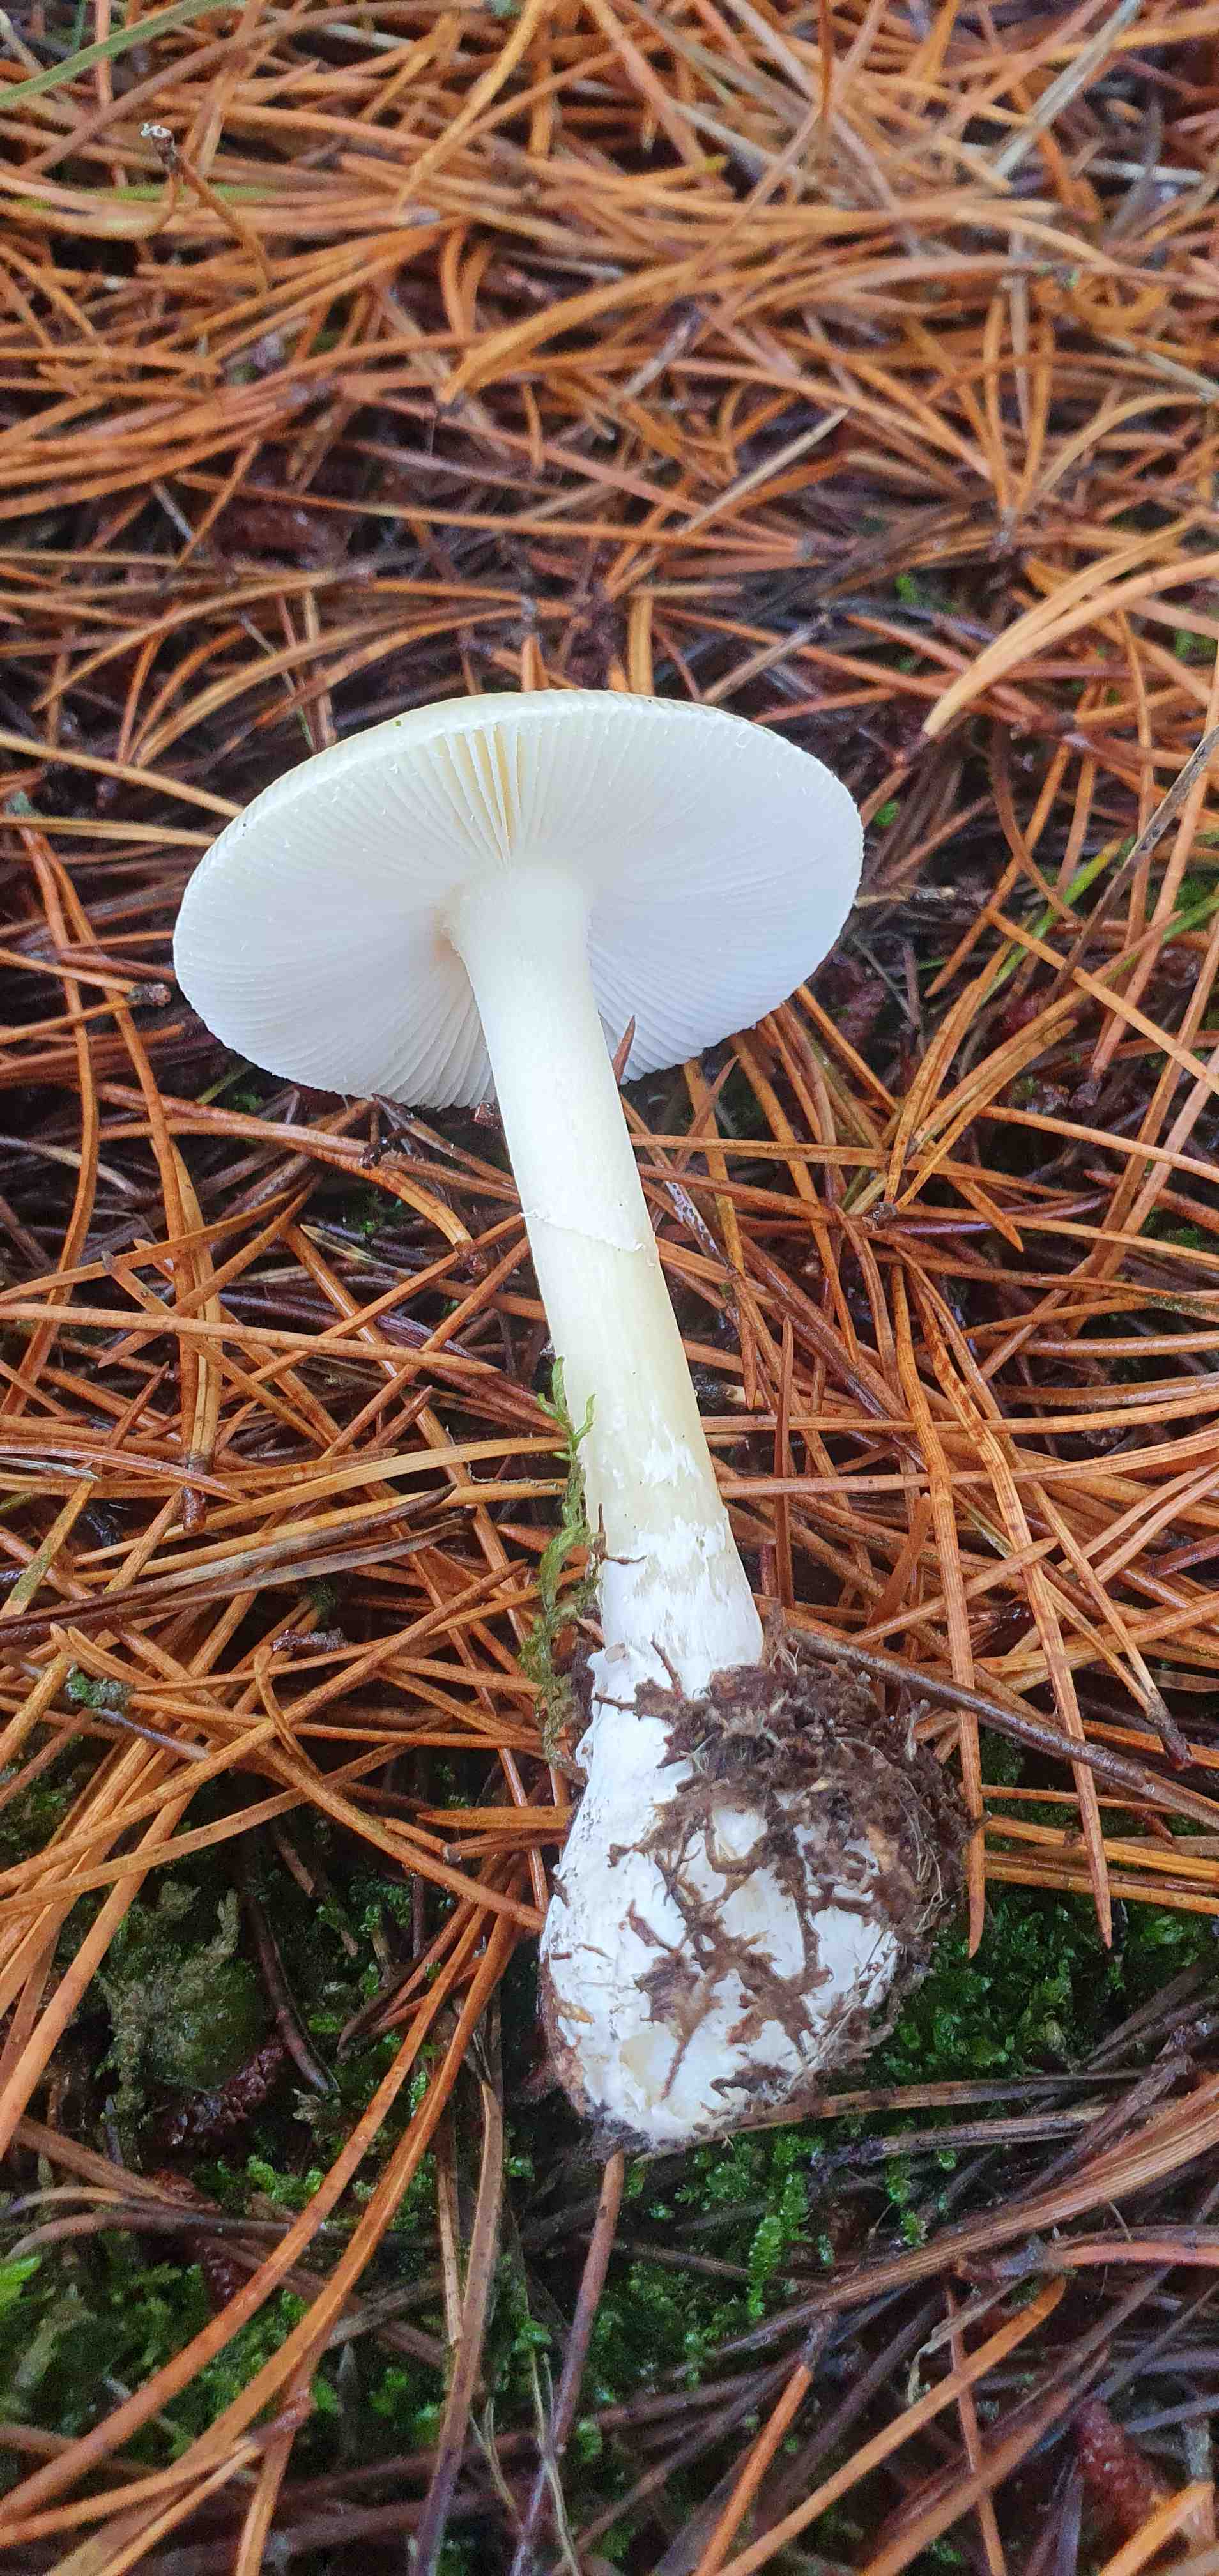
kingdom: Fungi
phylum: Basidiomycota
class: Agaricomycetes
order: Agaricales
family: Amanitaceae
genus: Amanita
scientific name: Amanita gemmata
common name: okkergul fluesvamp
